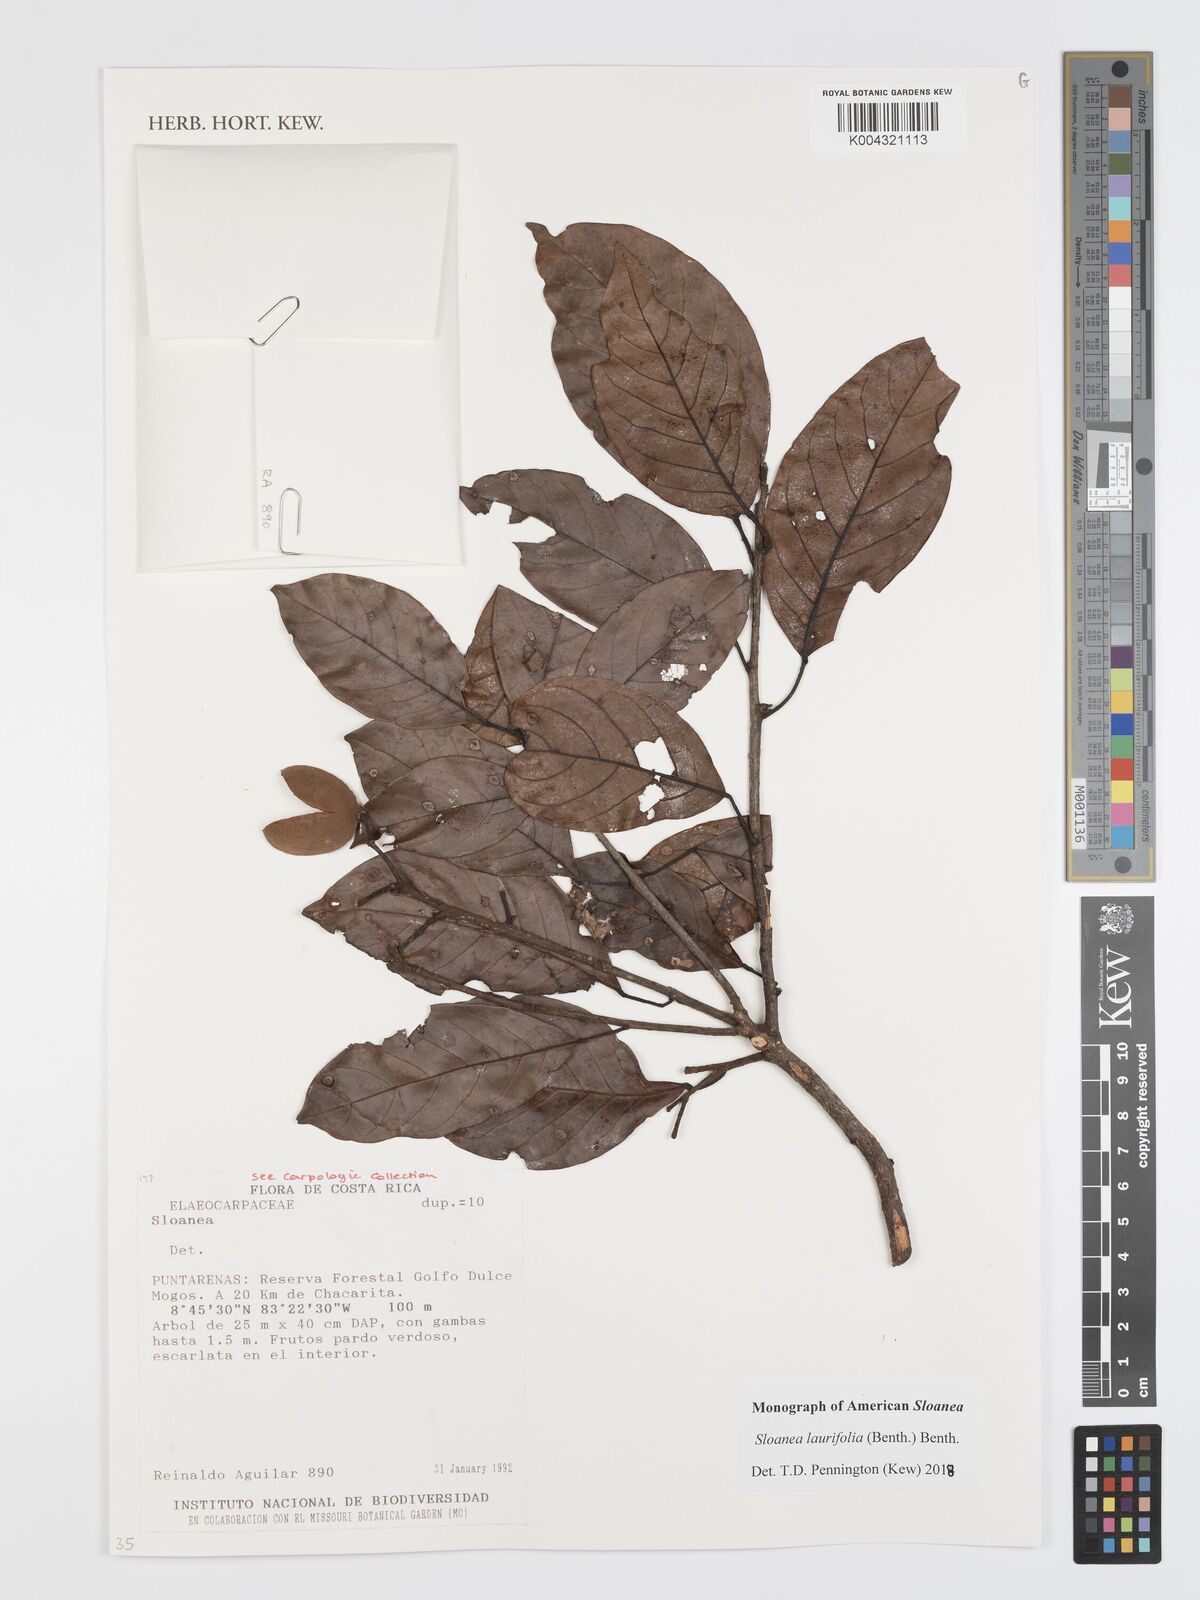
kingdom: Plantae
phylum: Tracheophyta
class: Magnoliopsida
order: Oxalidales
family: Elaeocarpaceae
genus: Sloanea
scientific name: Sloanea
